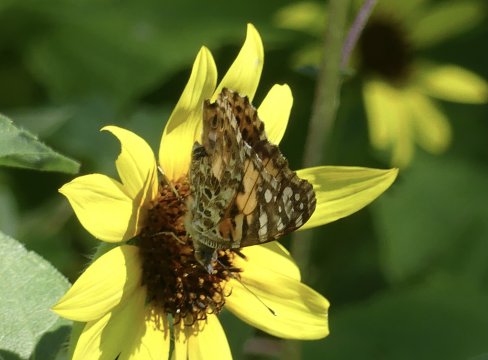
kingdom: Animalia
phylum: Arthropoda
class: Insecta
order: Lepidoptera
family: Nymphalidae
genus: Vanessa
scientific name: Vanessa cardui
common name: Painted Lady
